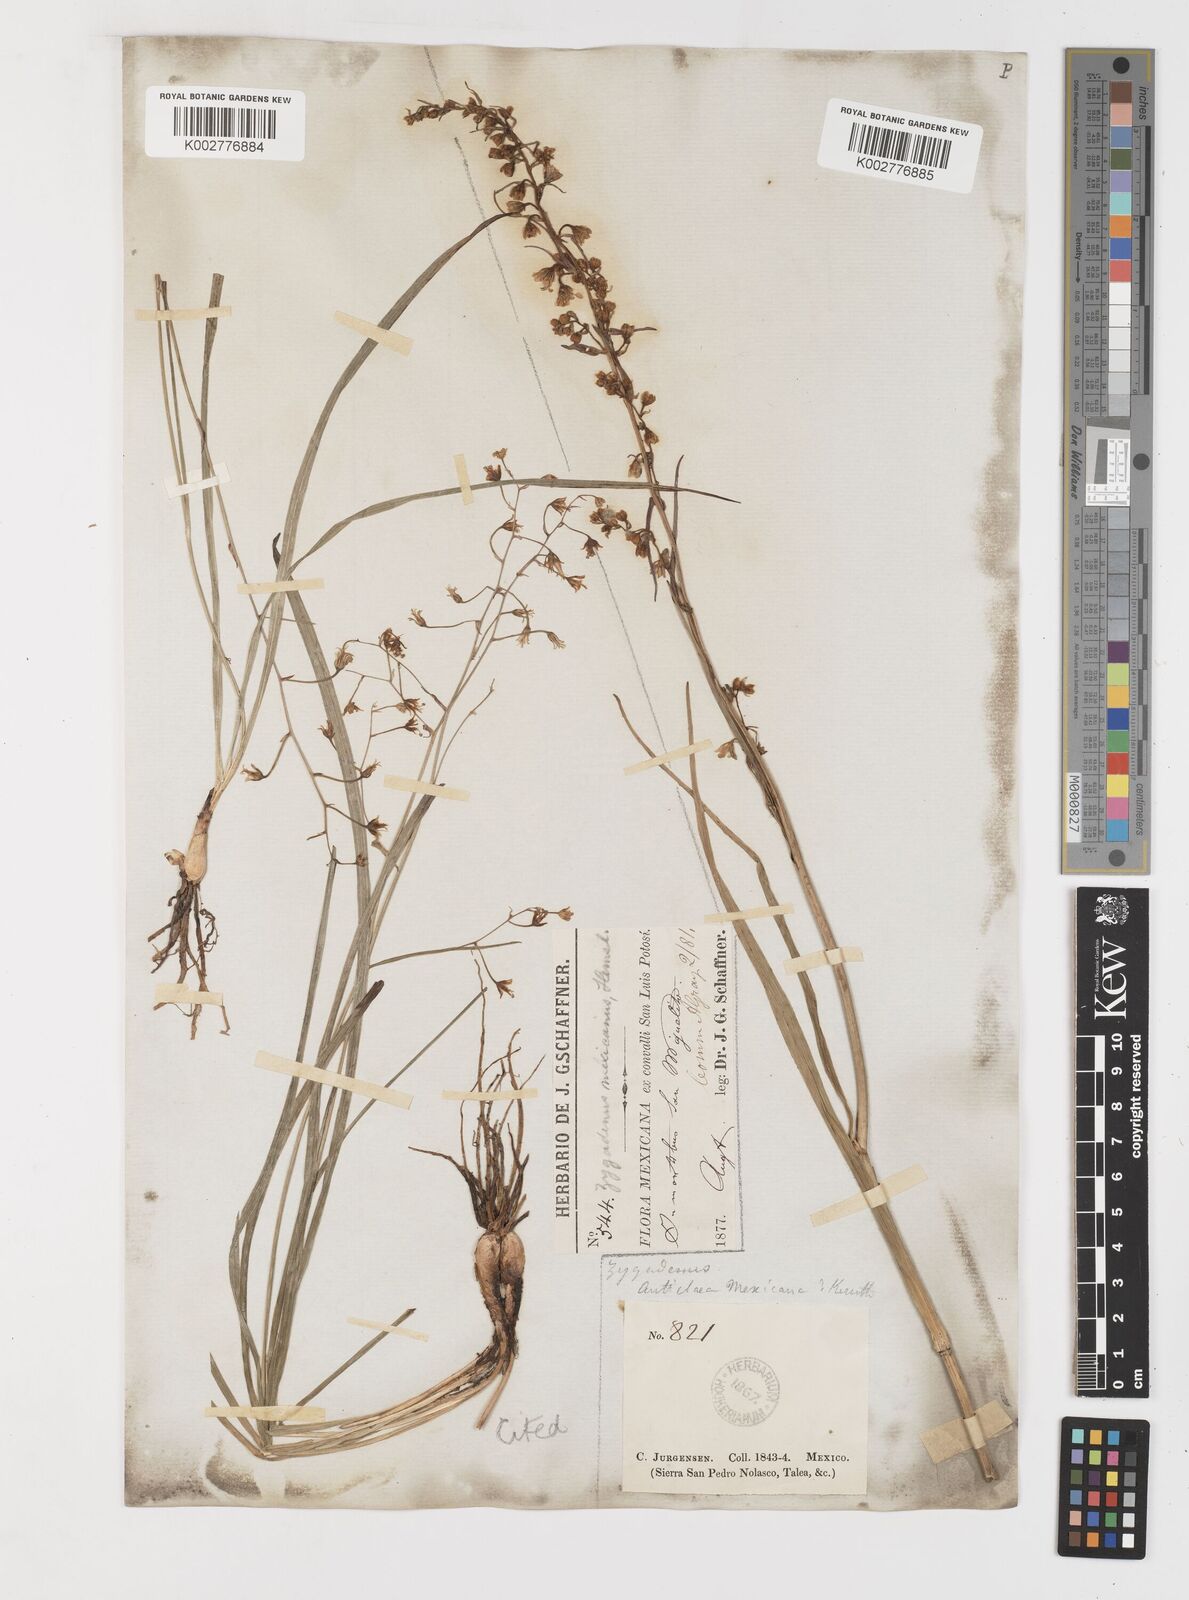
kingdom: Plantae
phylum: Tracheophyta
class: Liliopsida
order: Liliales
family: Melanthiaceae
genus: Anticlea
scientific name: Anticlea virescens
